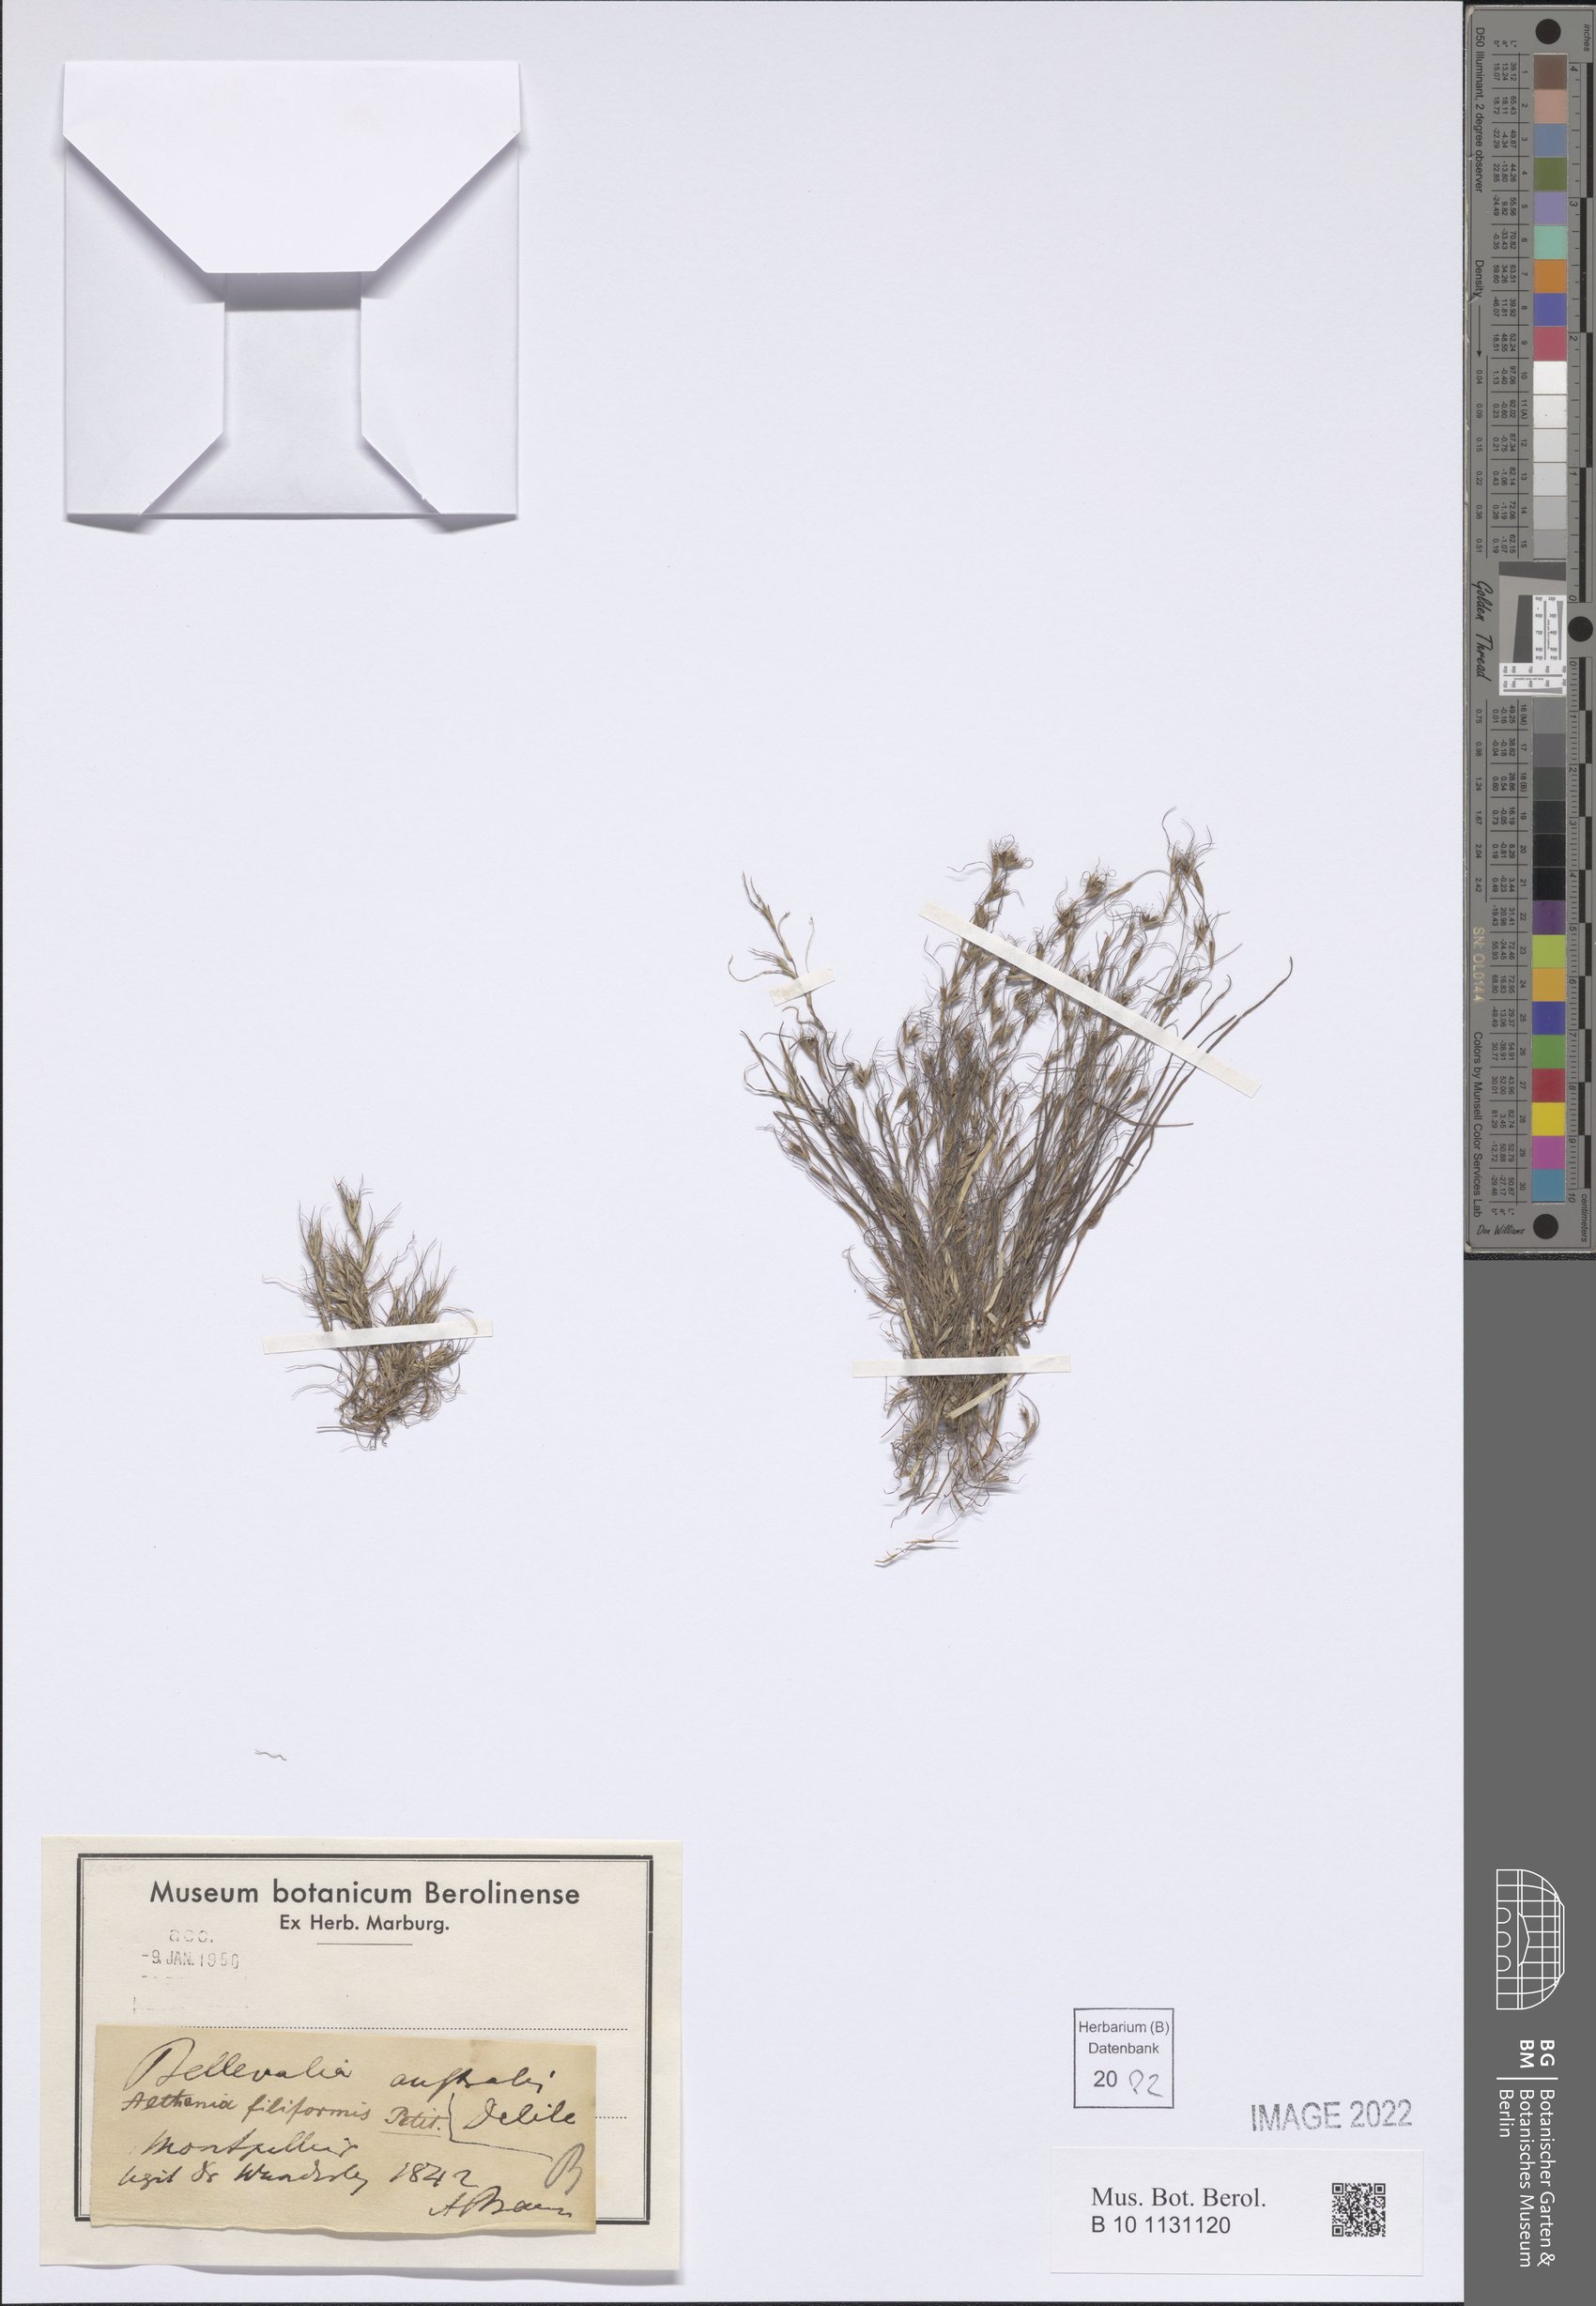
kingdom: Plantae
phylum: Tracheophyta
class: Liliopsida
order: Alismatales
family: Potamogetonaceae
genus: Althenia
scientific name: Althenia filiformis
